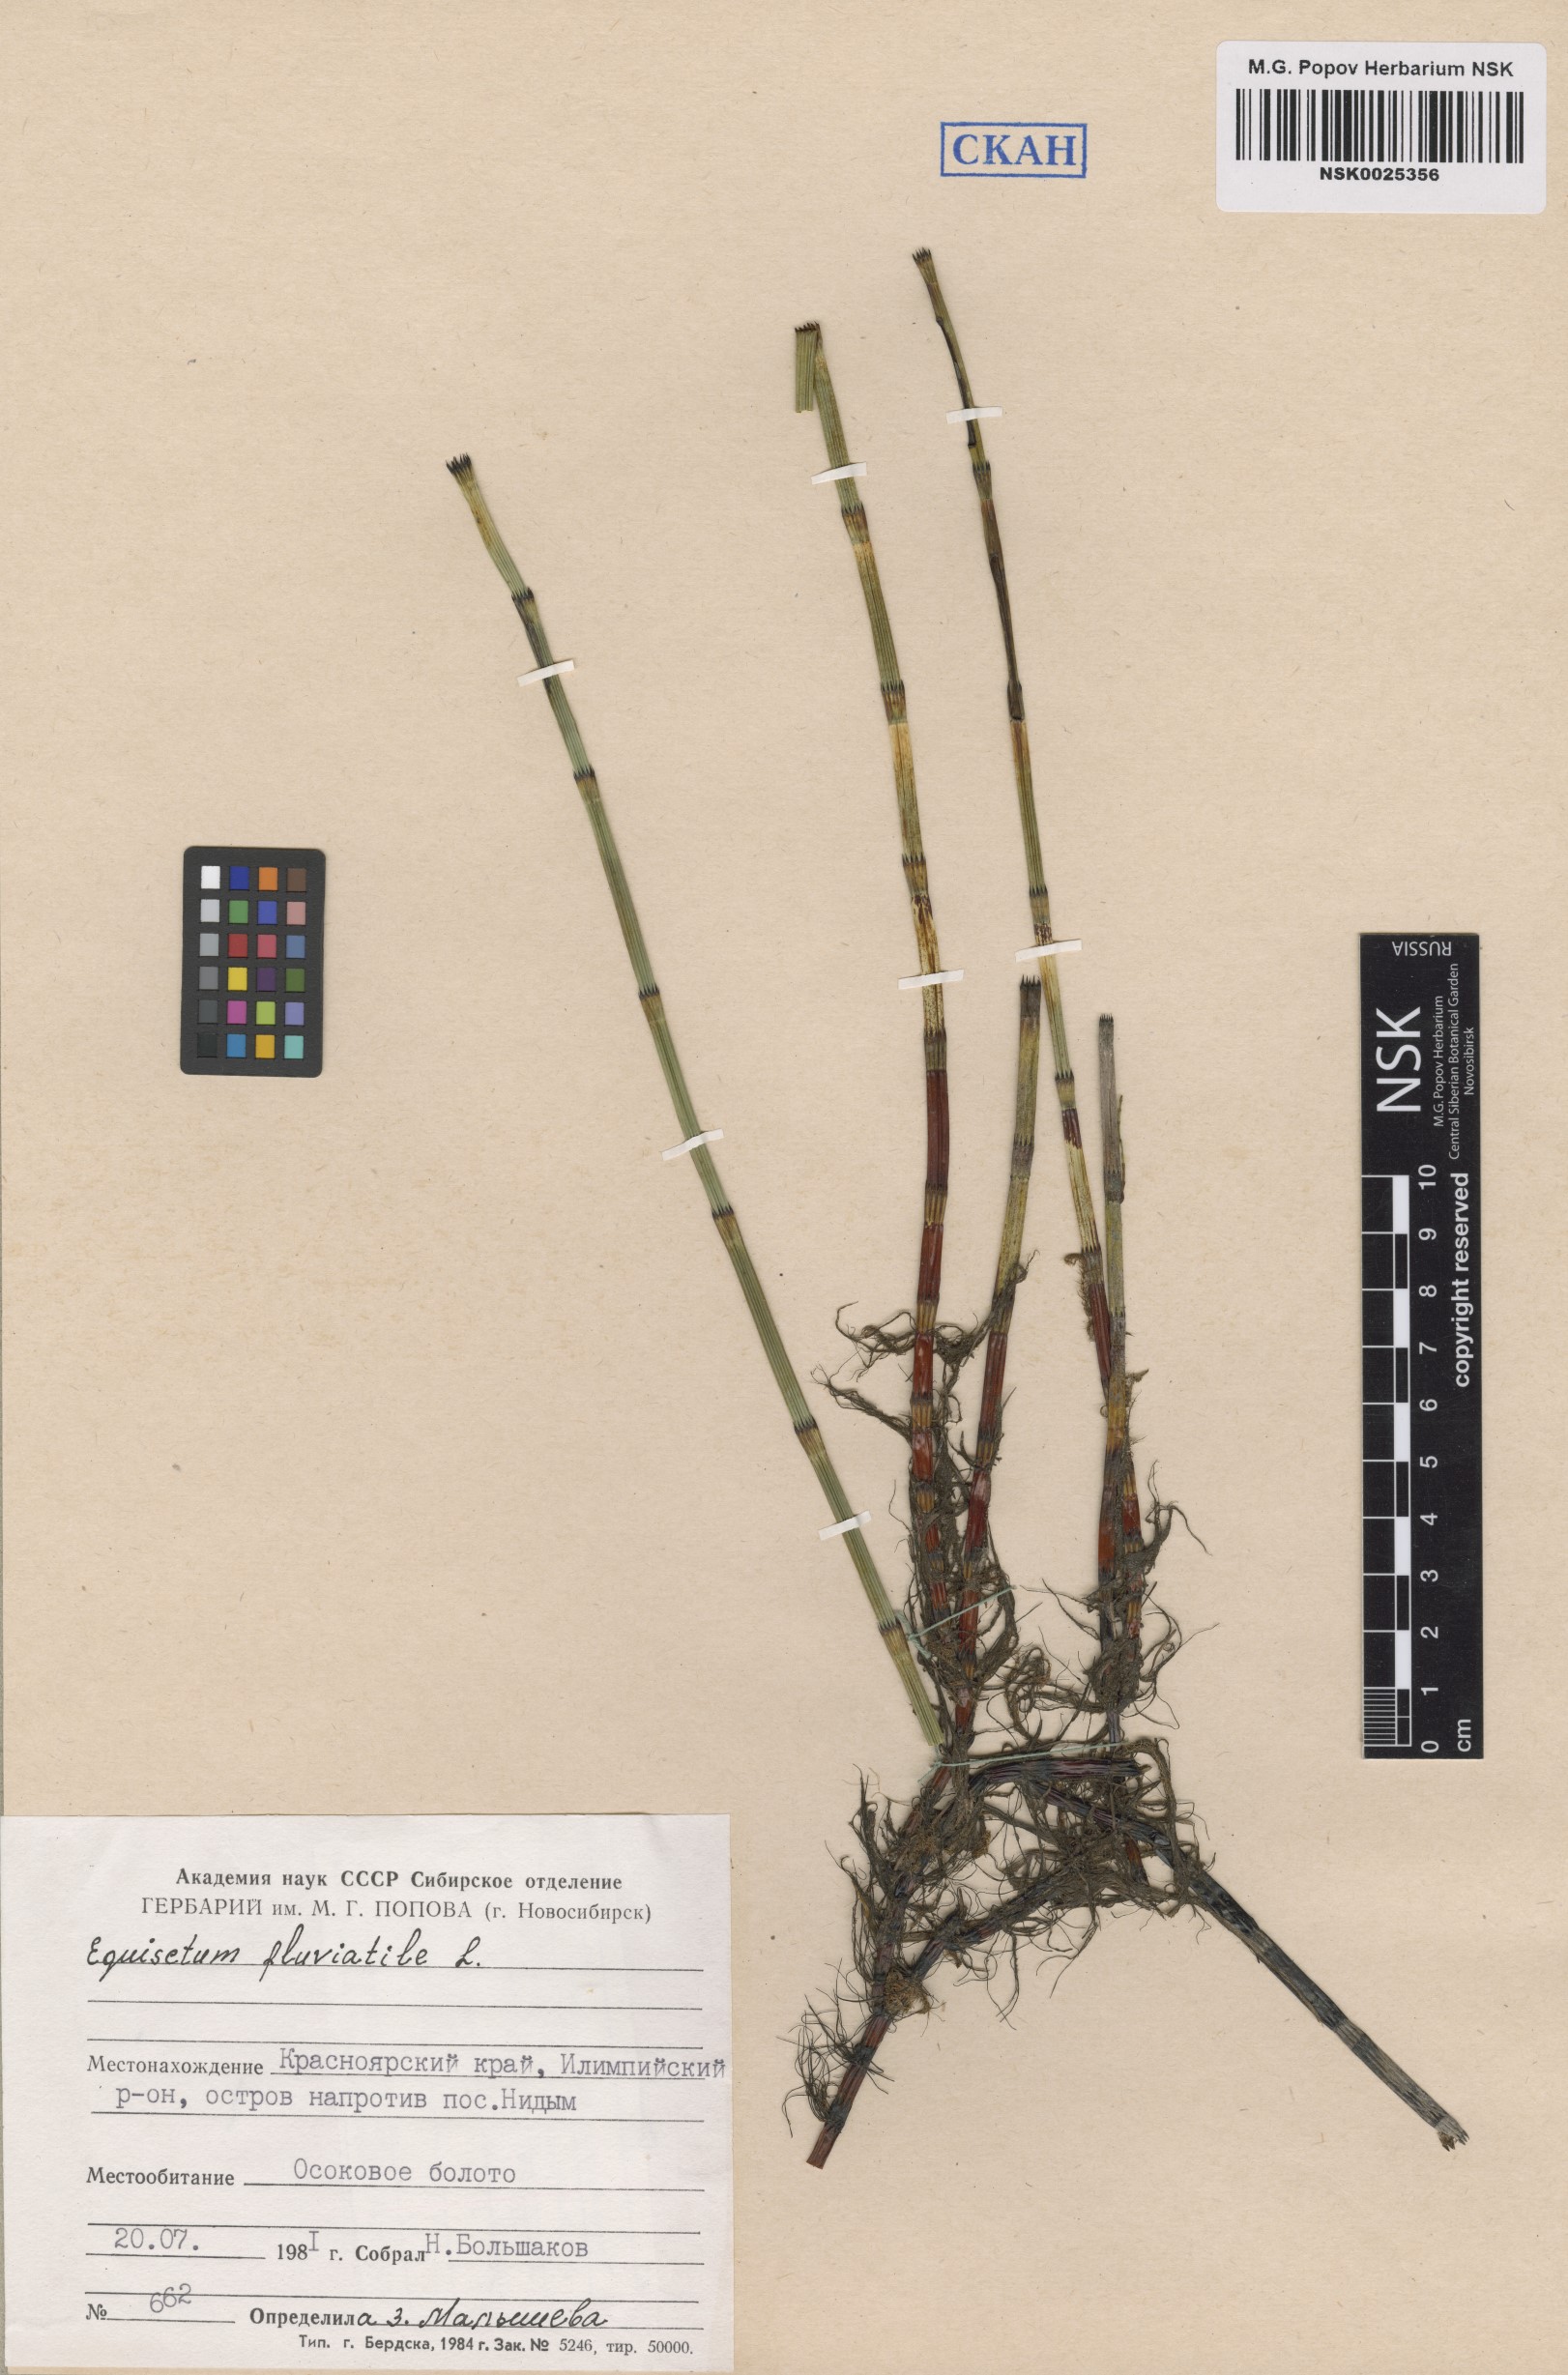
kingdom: Plantae
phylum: Tracheophyta
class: Polypodiopsida
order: Equisetales
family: Equisetaceae
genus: Equisetum
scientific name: Equisetum fluviatile
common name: Water horsetail
